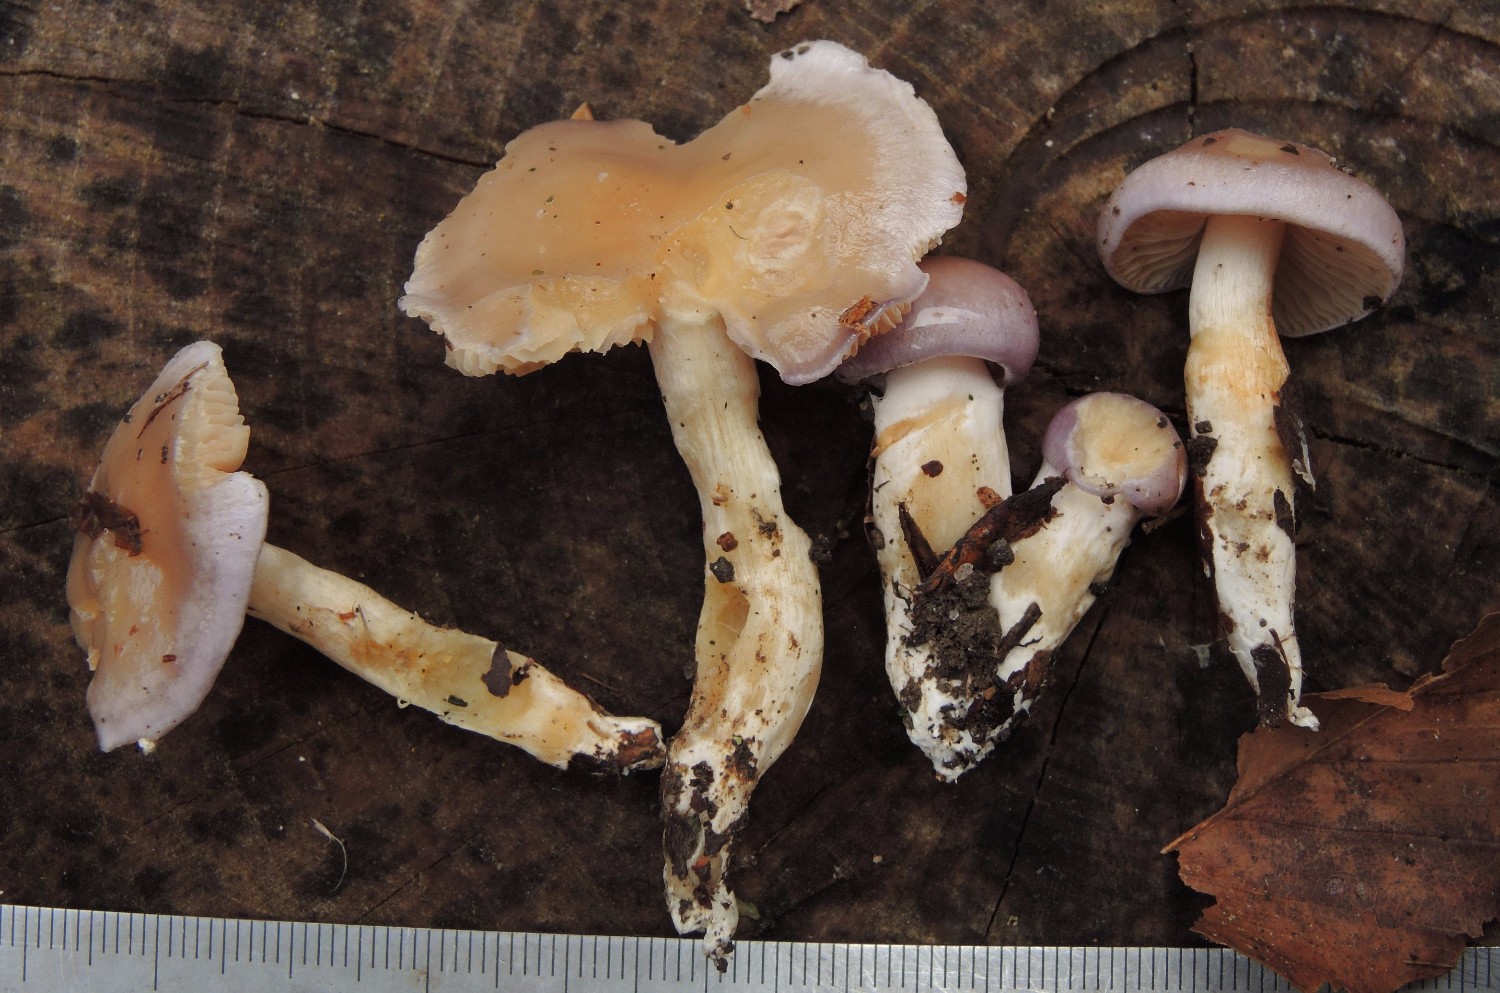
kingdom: Fungi
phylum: Basidiomycota
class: Agaricomycetes
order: Agaricales
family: Cortinariaceae
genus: Thaxterogaster
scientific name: Thaxterogaster croceocoeruleus
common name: blågullig slørhat
